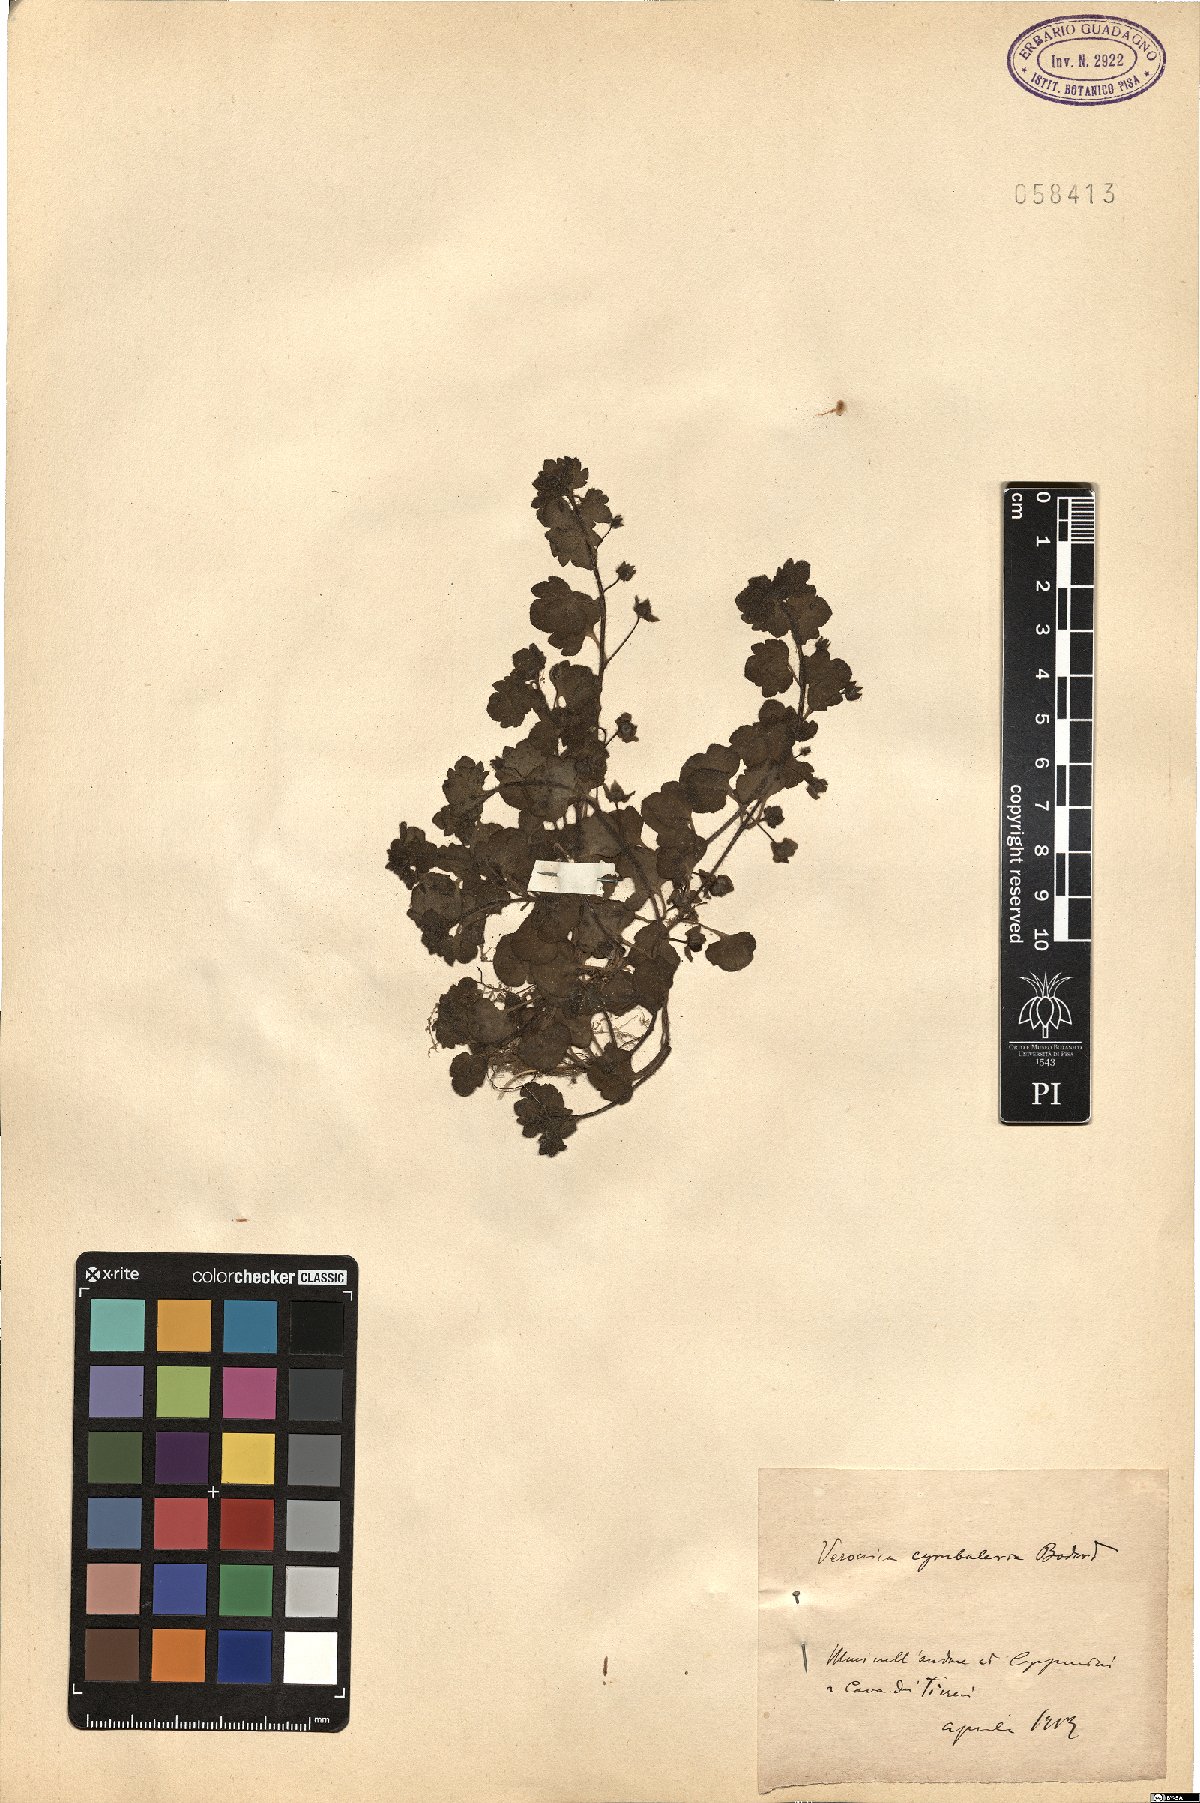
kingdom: Plantae
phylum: Tracheophyta
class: Magnoliopsida
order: Lamiales
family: Plantaginaceae
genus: Veronica
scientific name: Veronica cymbalaria
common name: Pale speedwell
